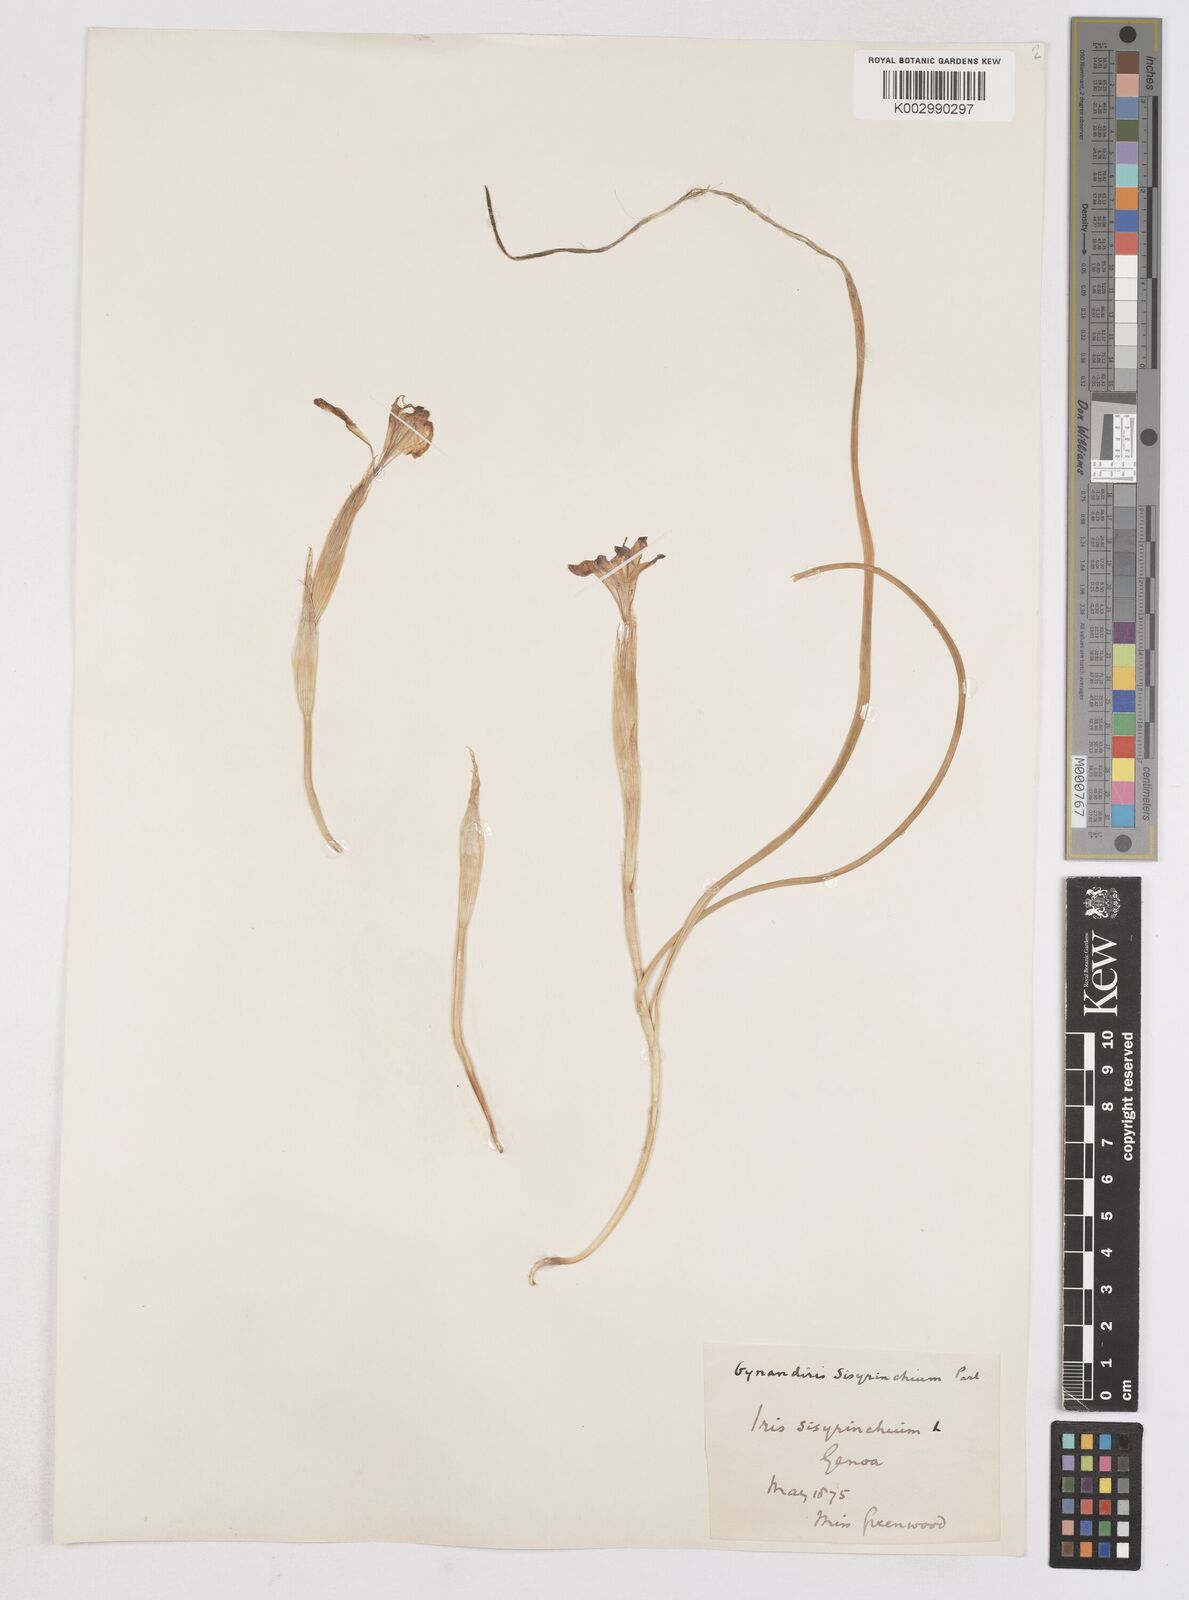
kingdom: Plantae
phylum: Tracheophyta
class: Liliopsida
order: Asparagales
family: Iridaceae
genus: Moraea
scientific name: Moraea sisyrinchium
